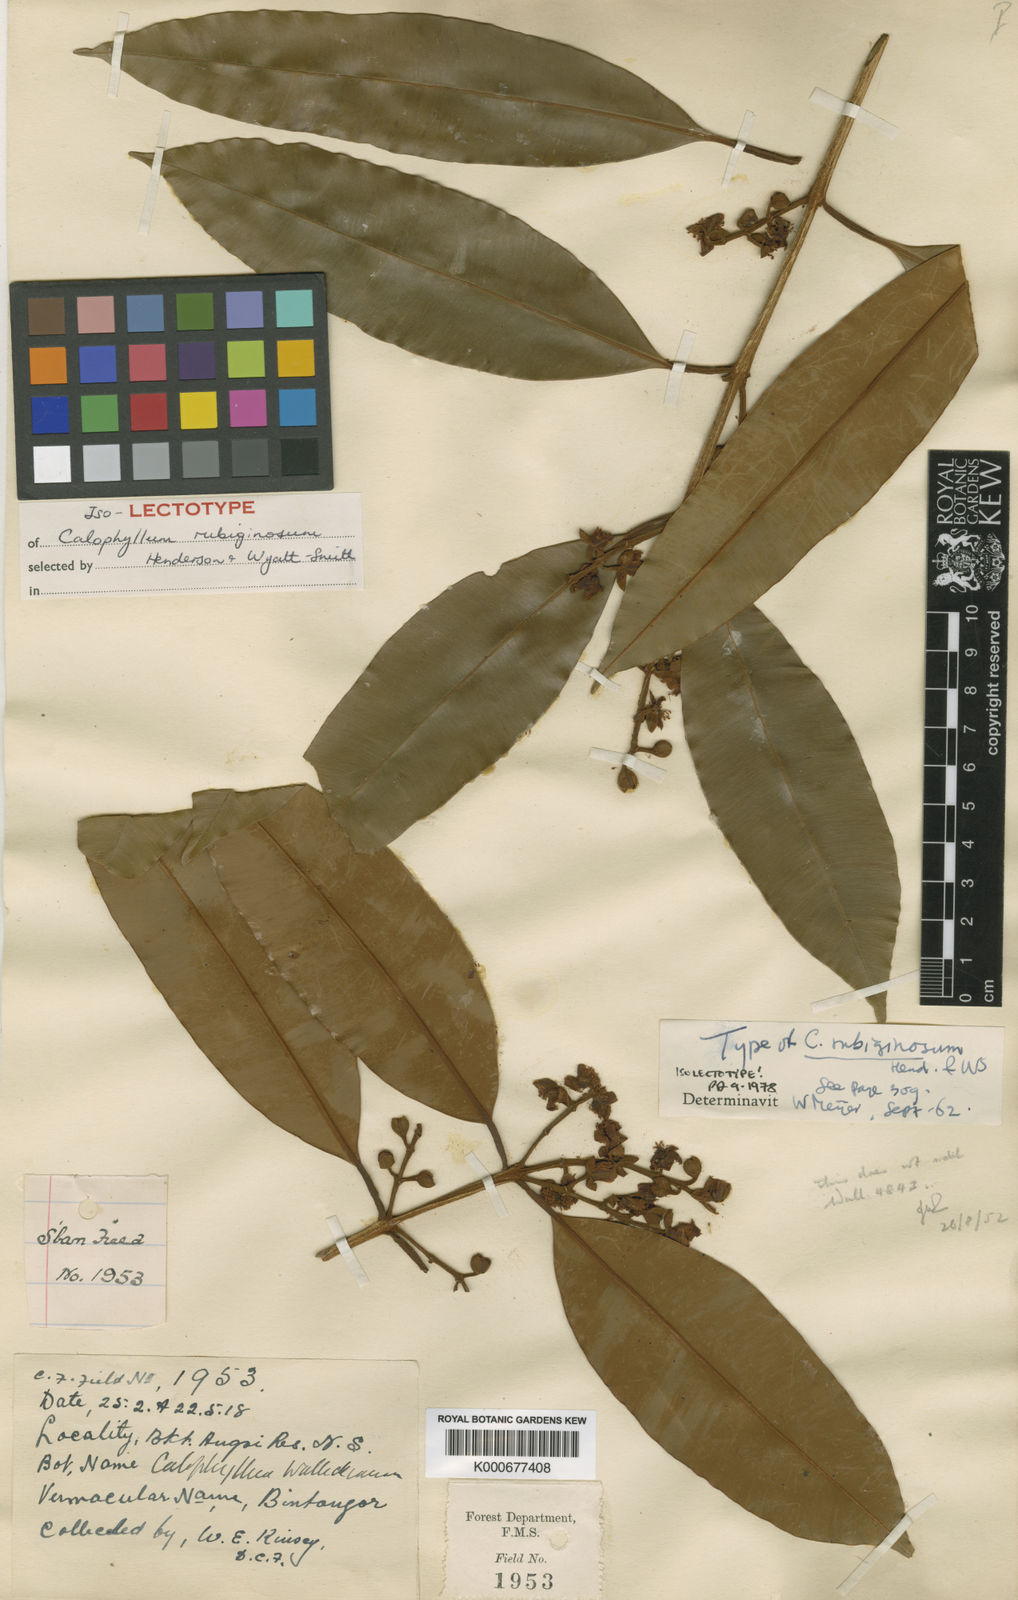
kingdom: Plantae
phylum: Tracheophyta
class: Magnoliopsida
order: Malpighiales
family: Calophyllaceae
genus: Calophyllum
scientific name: Calophyllum rubiginosum
